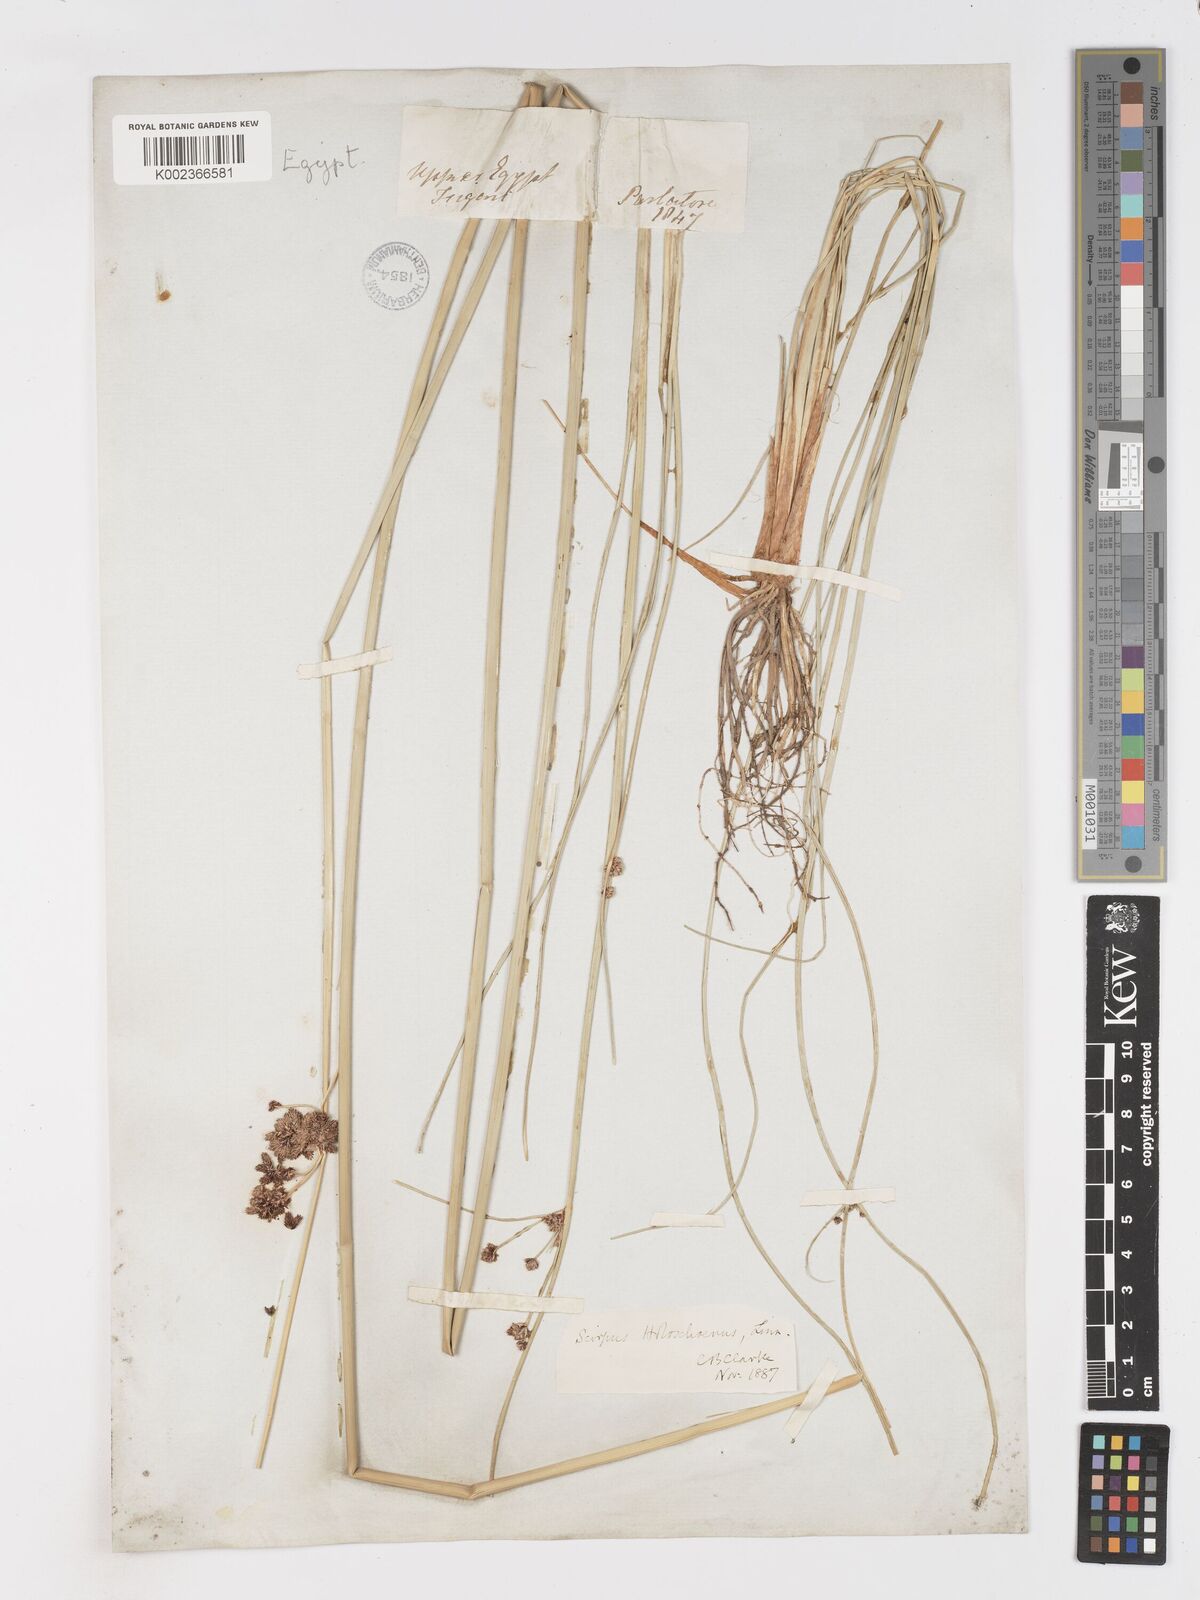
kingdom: Plantae
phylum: Tracheophyta
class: Liliopsida
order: Poales
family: Cyperaceae
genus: Scirpoides
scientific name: Scirpoides holoschoenus
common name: Round-headed club-rush
